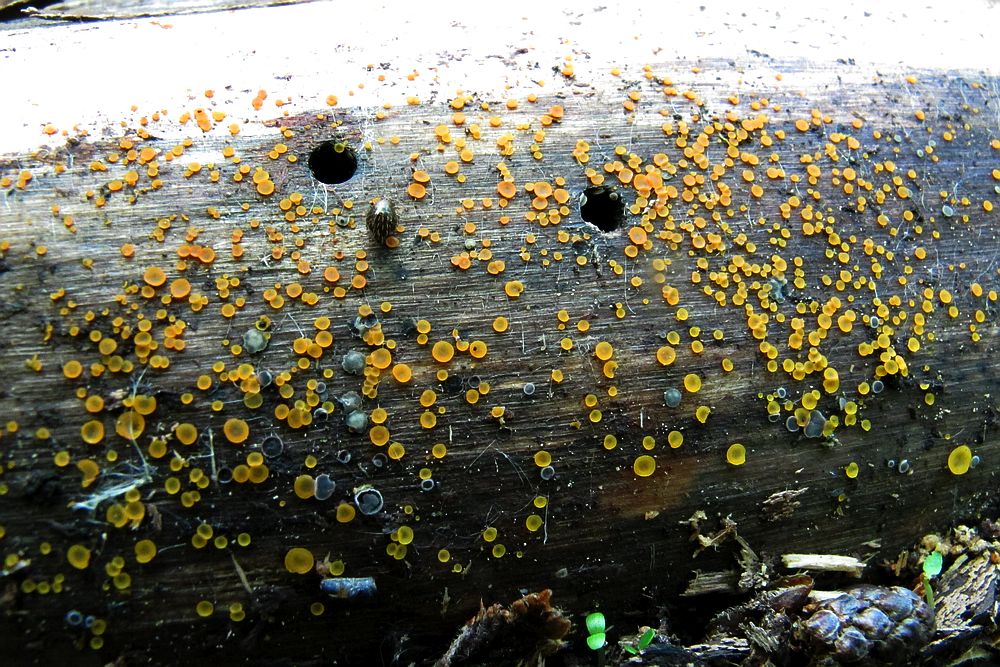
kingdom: Fungi
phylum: Ascomycota
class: Orbiliomycetes
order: Orbiliales
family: Orbiliaceae
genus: Orbilia
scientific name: Orbilia xanthostigma
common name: krumsporet voksskive
